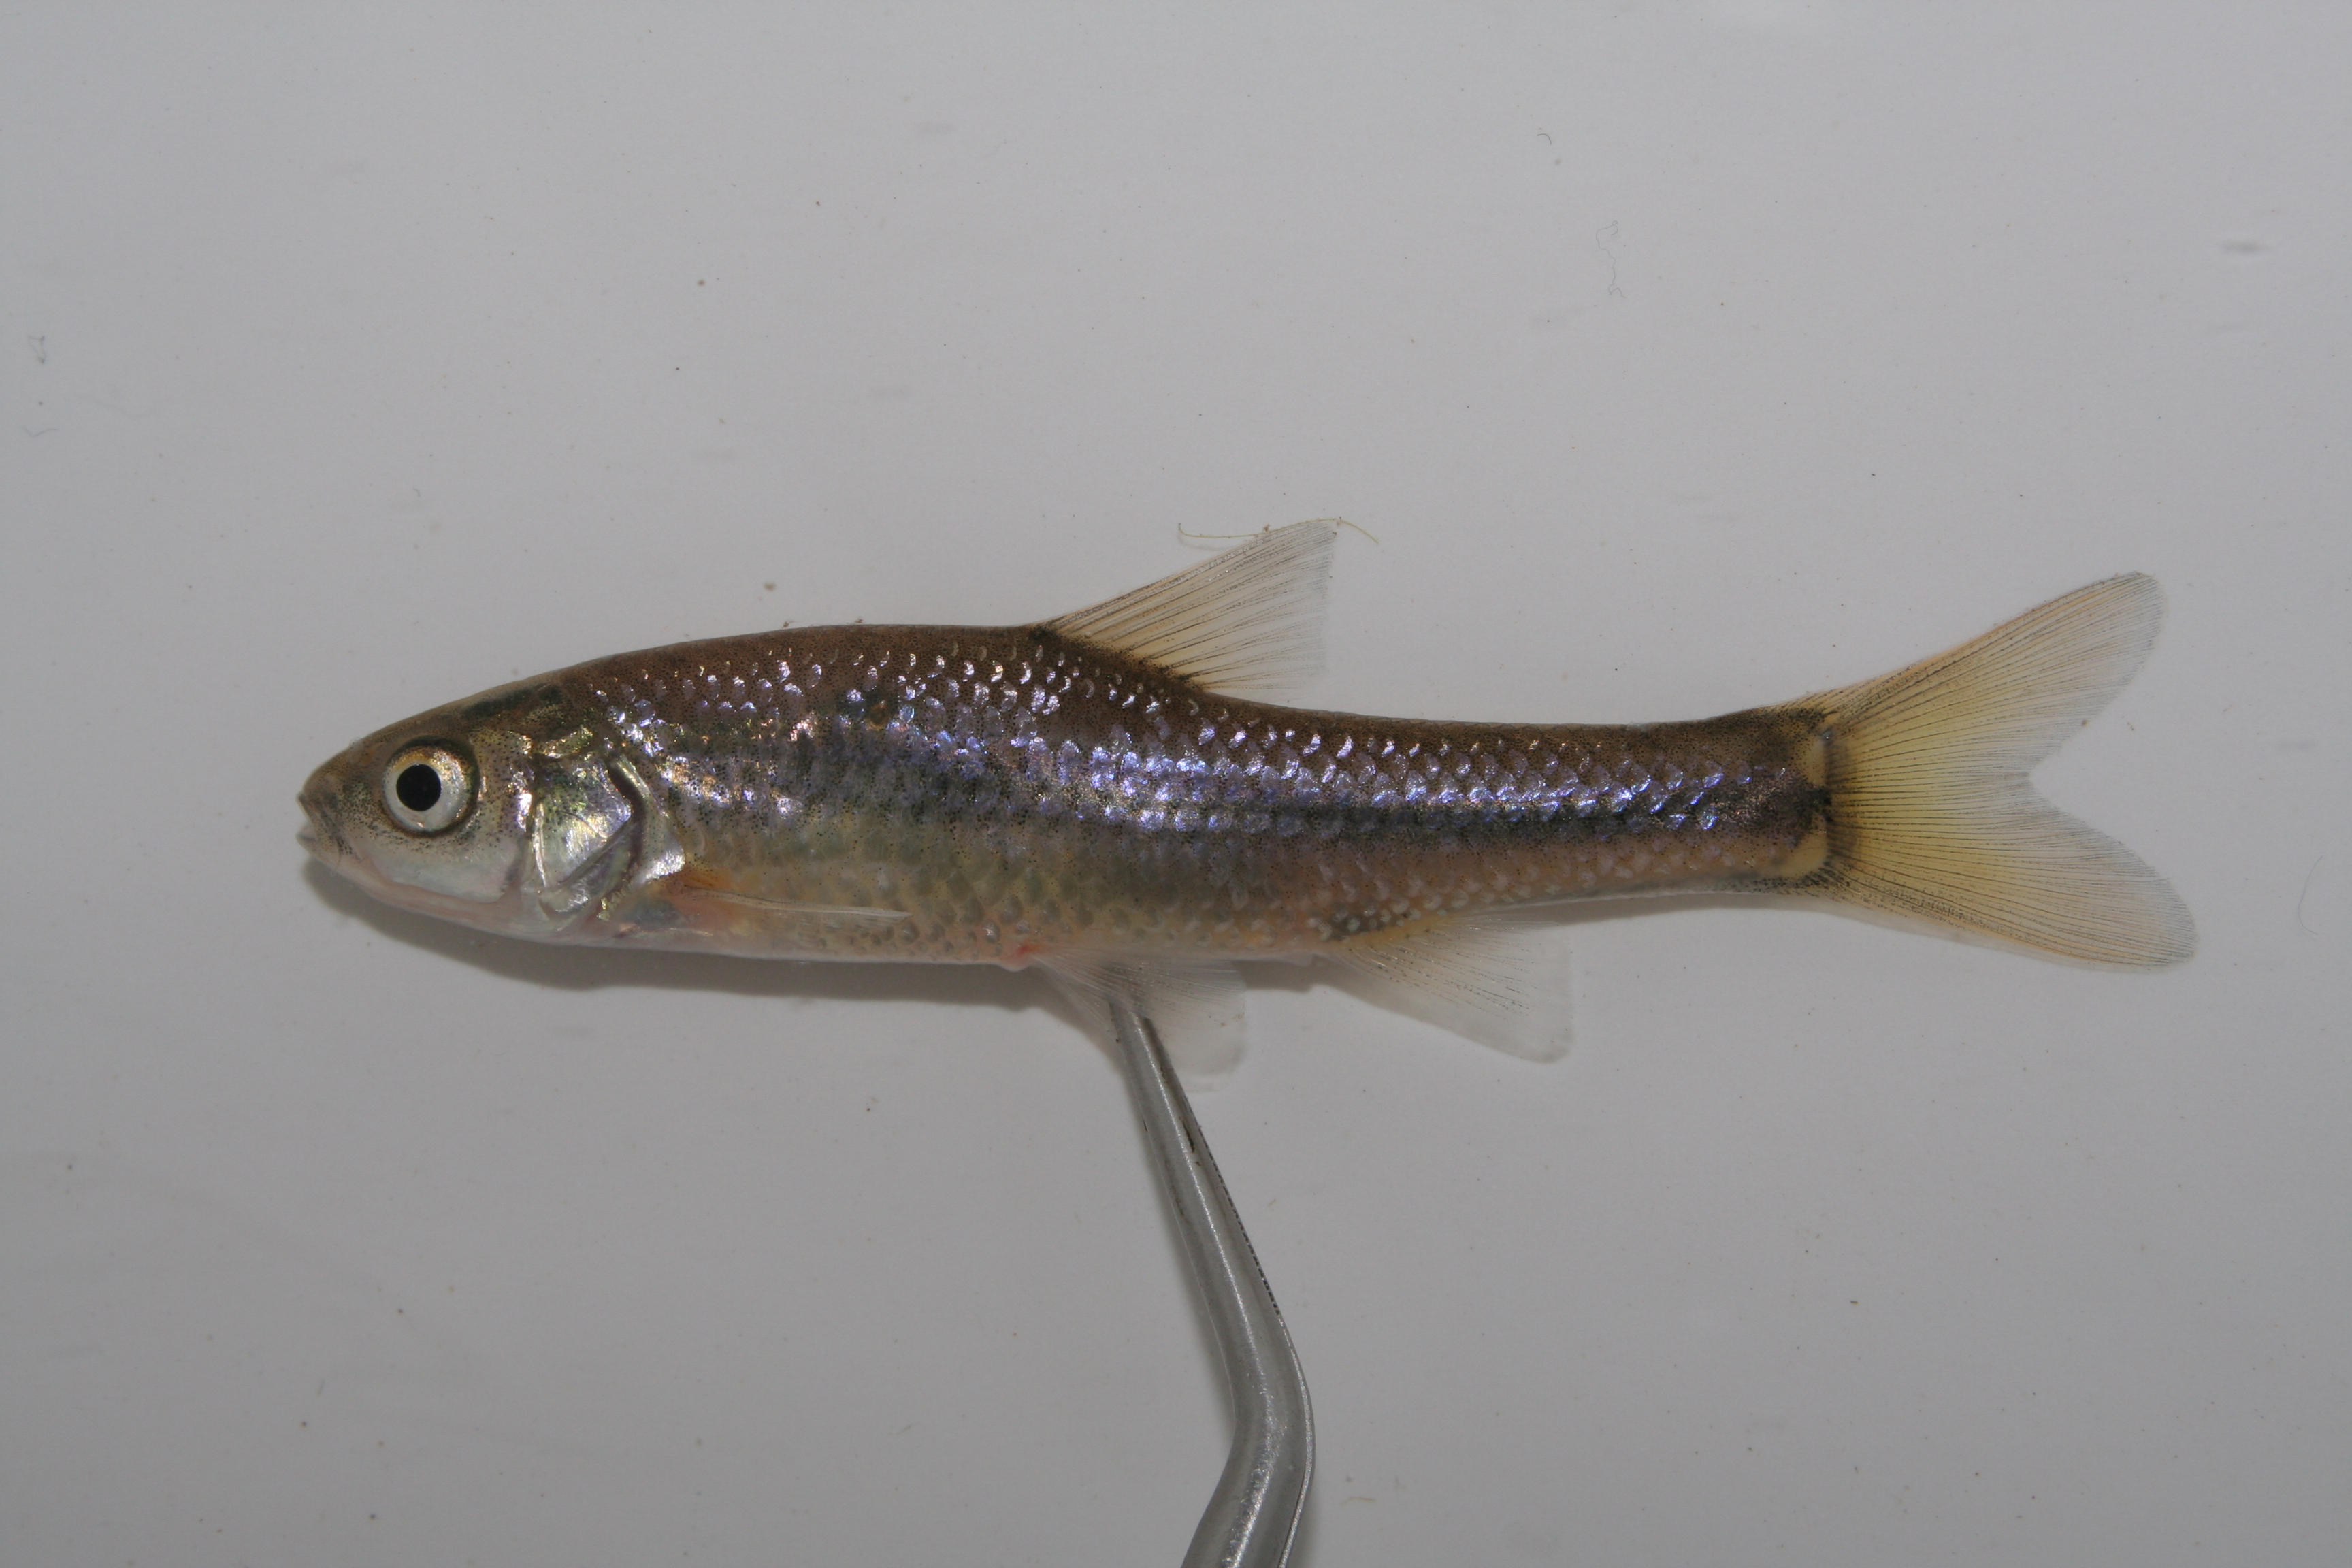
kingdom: Animalia
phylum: Chordata
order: Cypriniformes
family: Cyprinidae
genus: Enteromius
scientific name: Enteromius anoplus
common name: Chubbyhead barb
